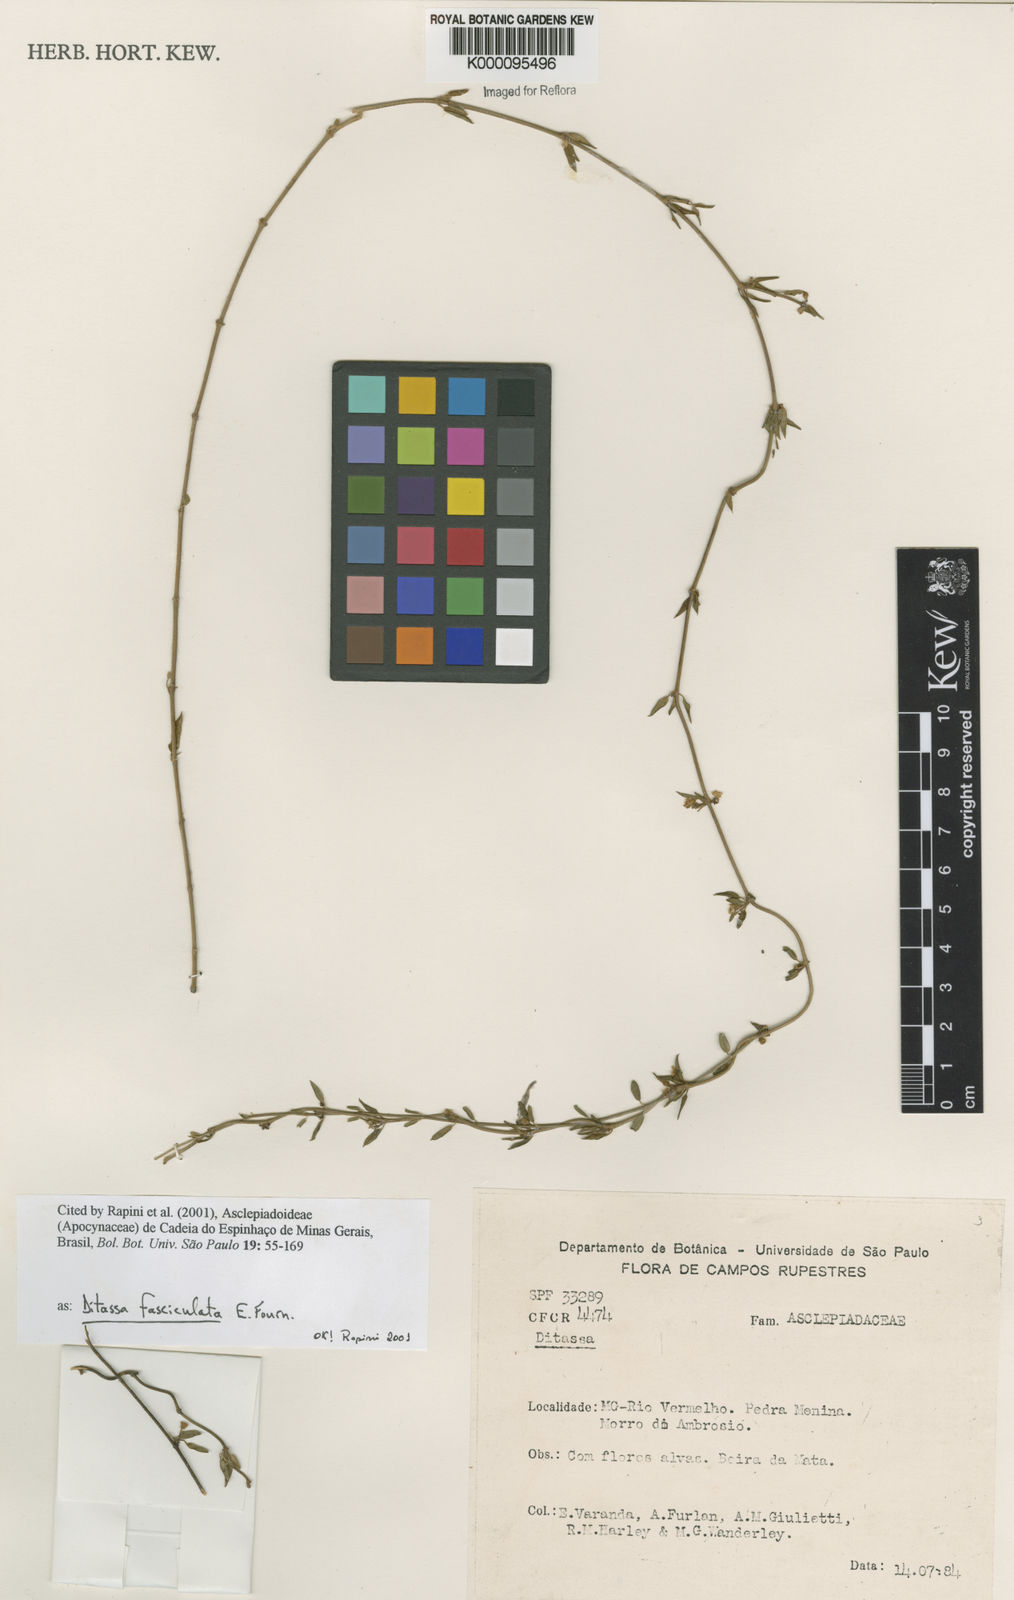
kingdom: Plantae
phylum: Tracheophyta
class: Magnoliopsida
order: Gentianales
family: Apocynaceae
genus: Ditassa
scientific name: Ditassa fasciculata
